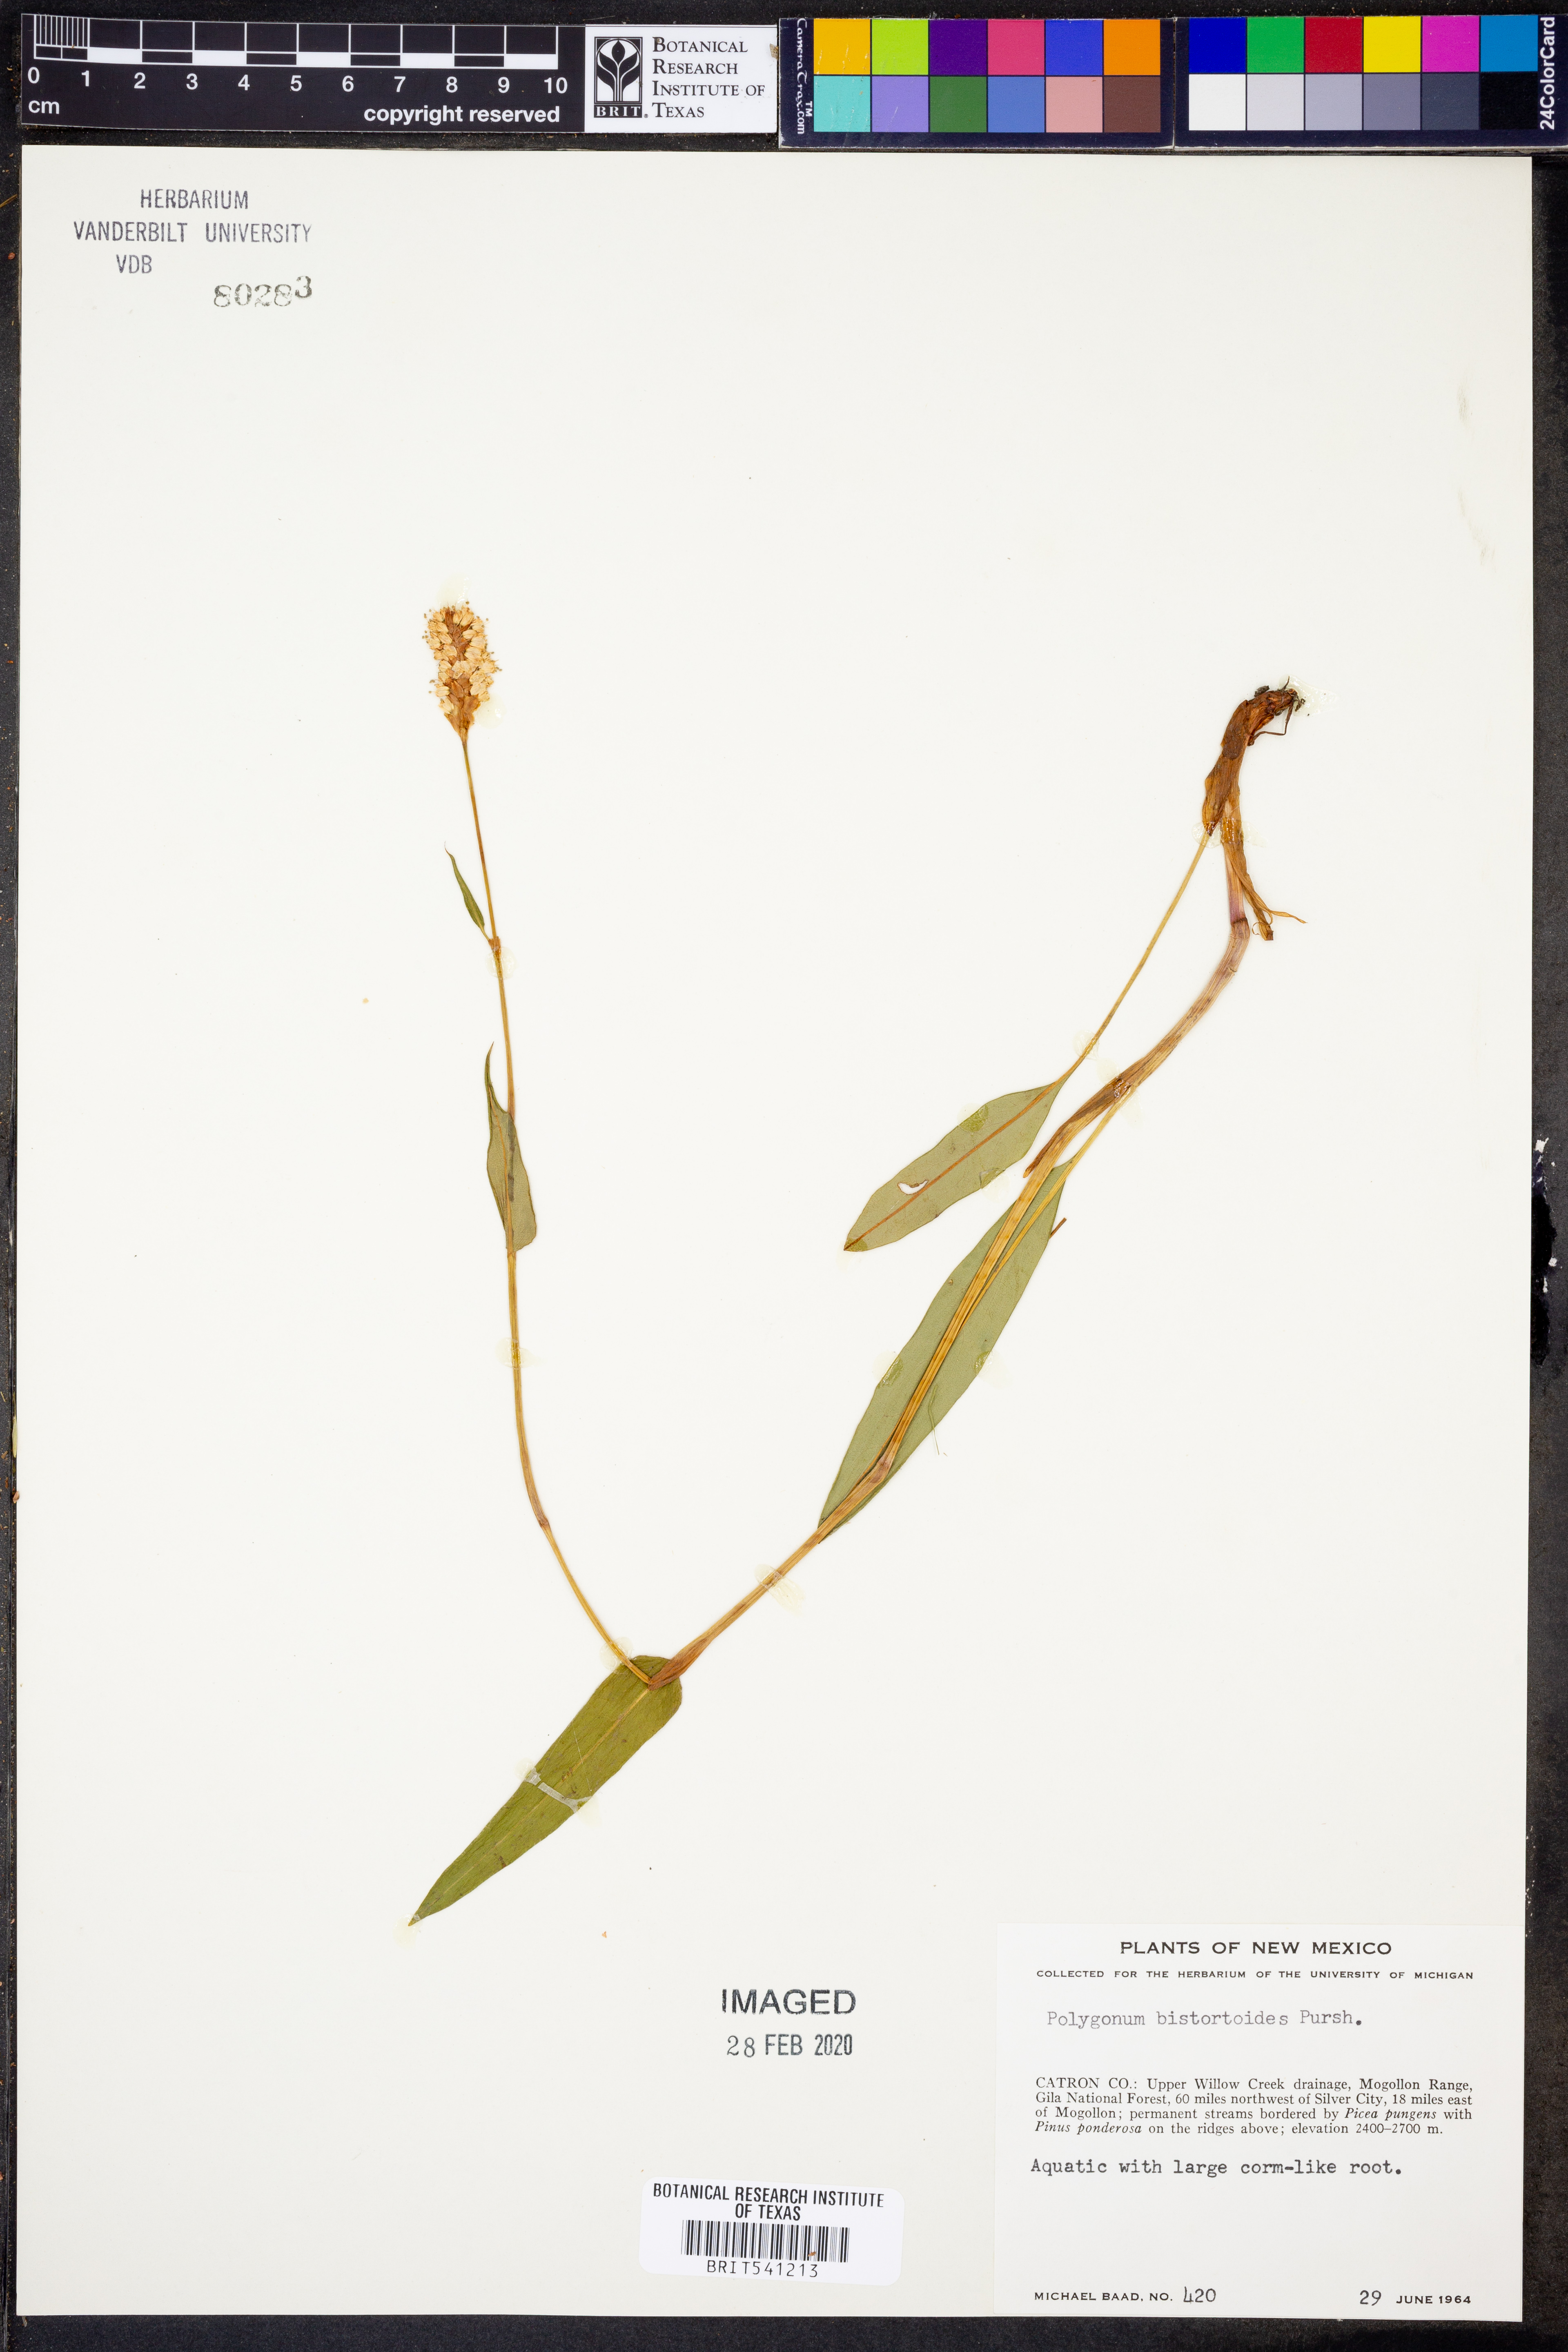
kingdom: Plantae
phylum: Tracheophyta
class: Magnoliopsida
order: Caryophyllales
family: Polygonaceae
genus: Bistorta
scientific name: Bistorta bistortoides
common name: American bistort
